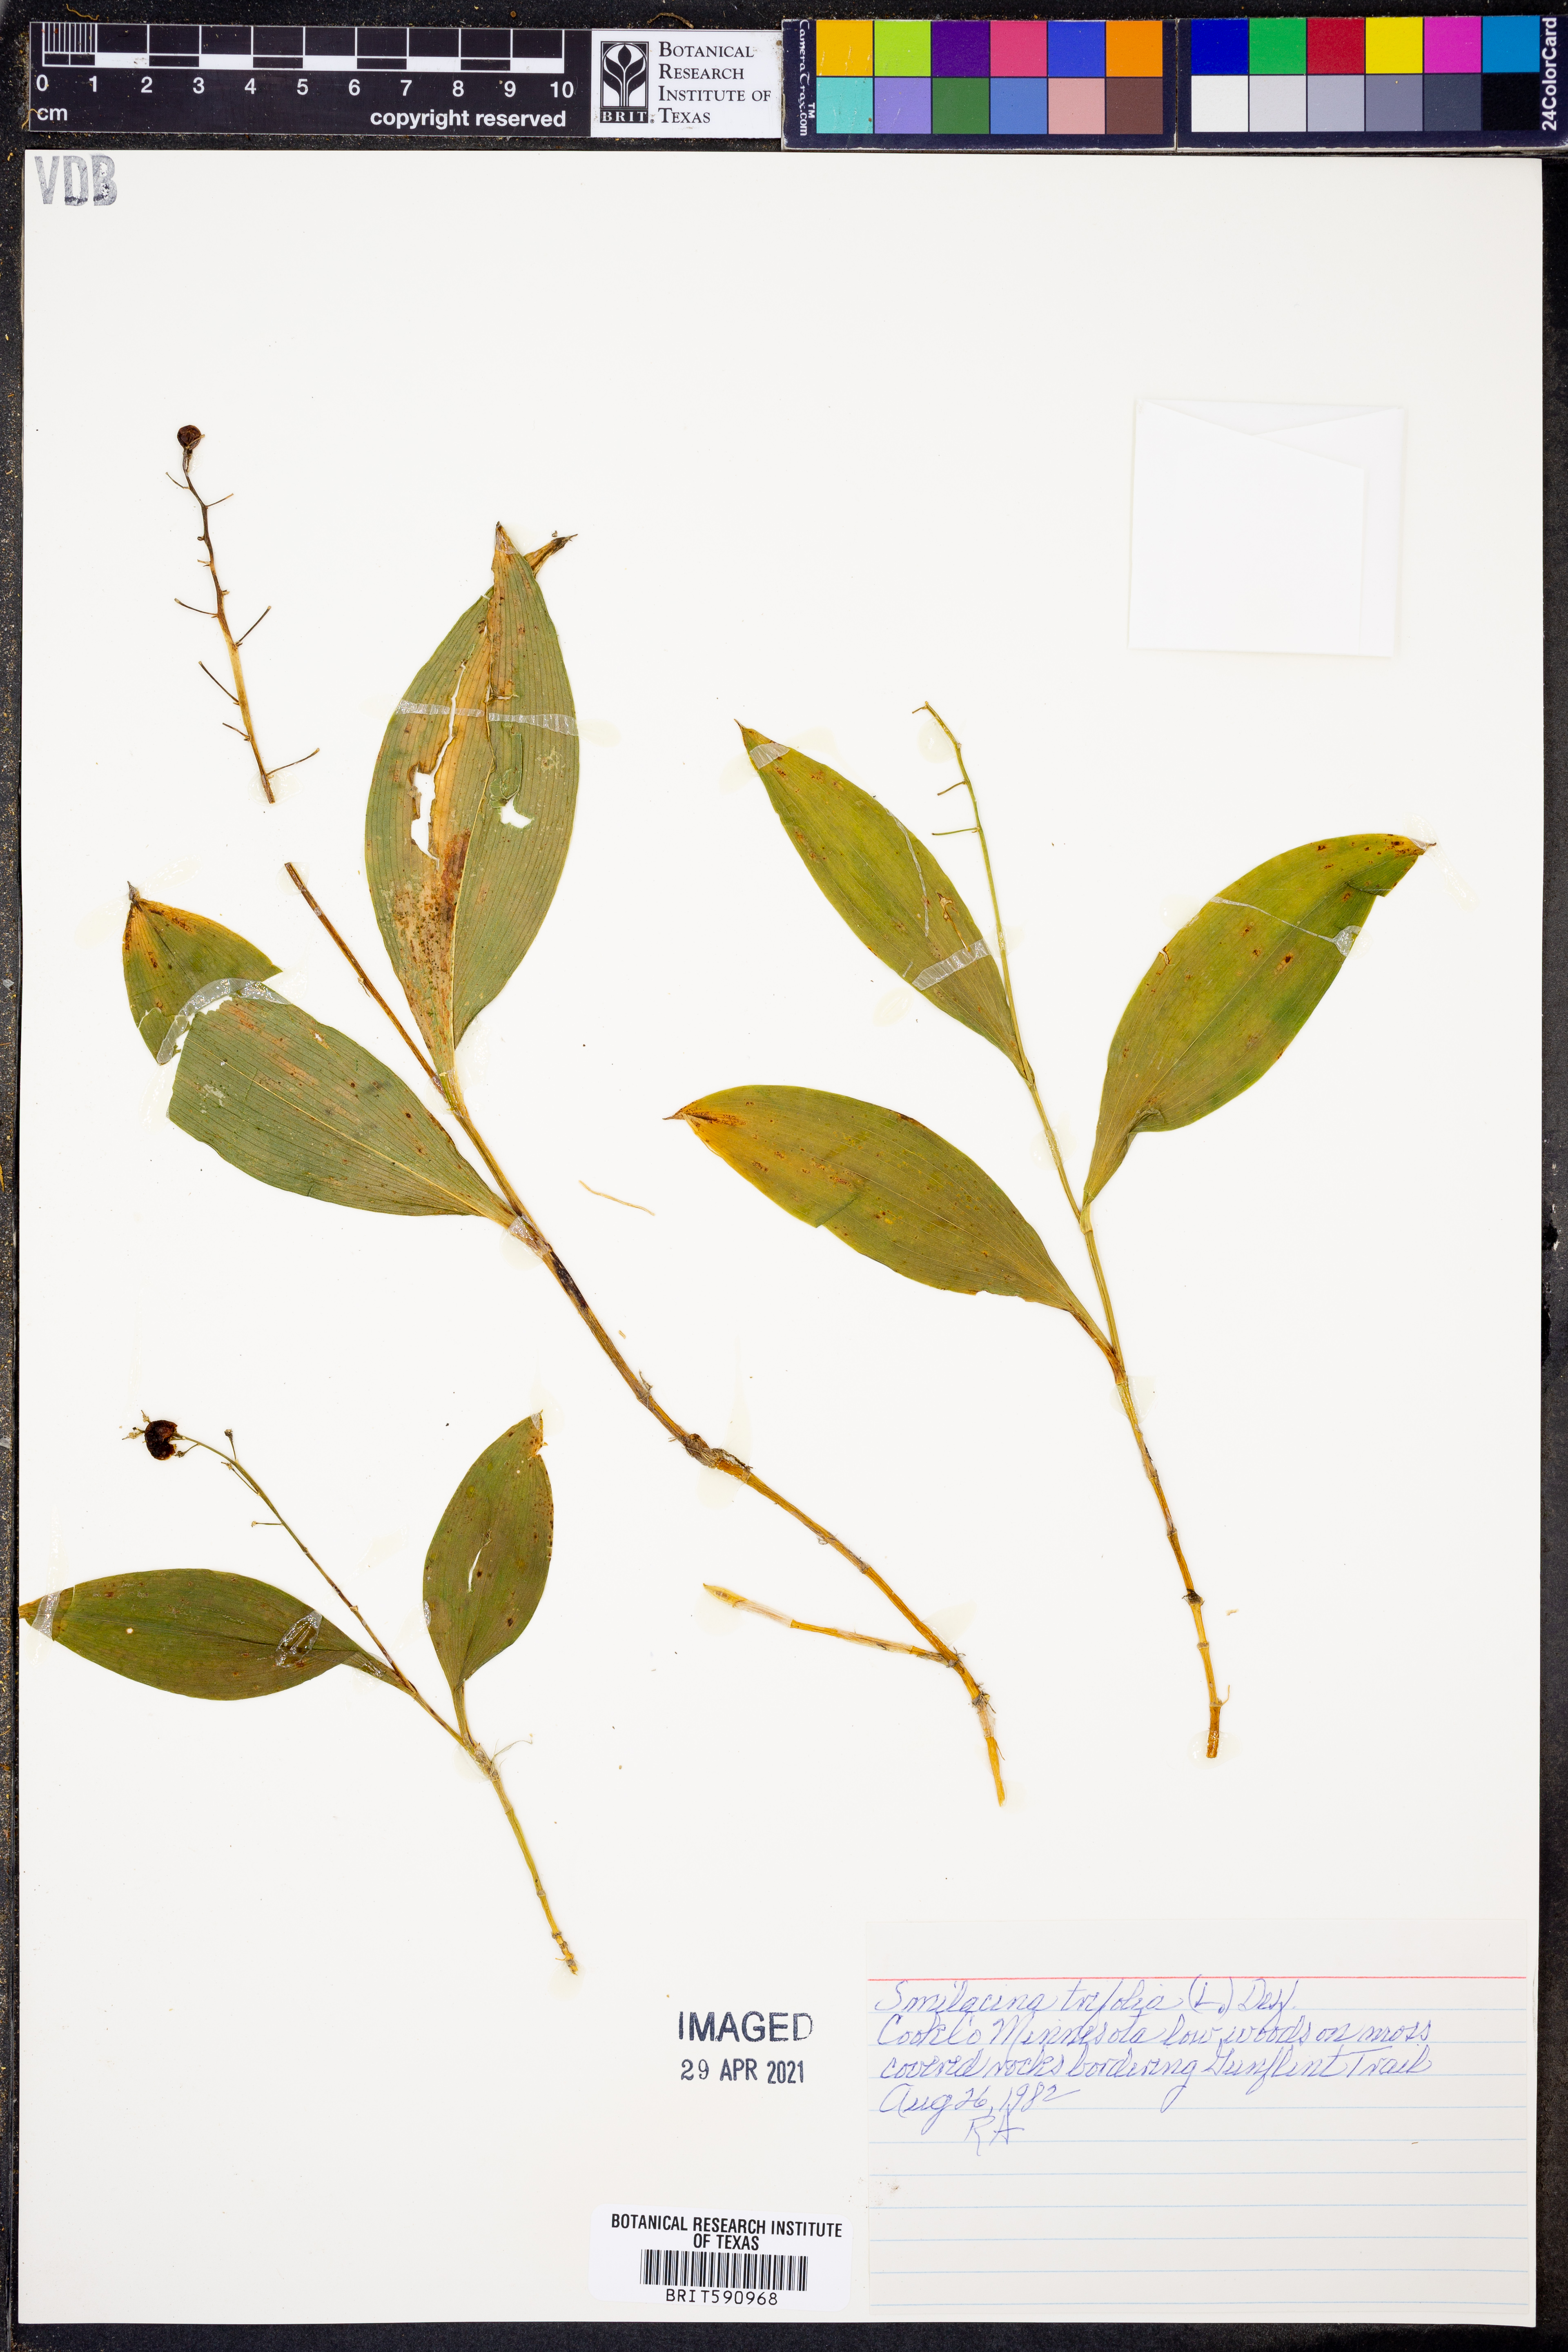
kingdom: Plantae
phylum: Tracheophyta
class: Liliopsida
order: Asparagales
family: Asparagaceae
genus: Maianthemum
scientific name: Maianthemum trifolium
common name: Swamp false solomon's seal
